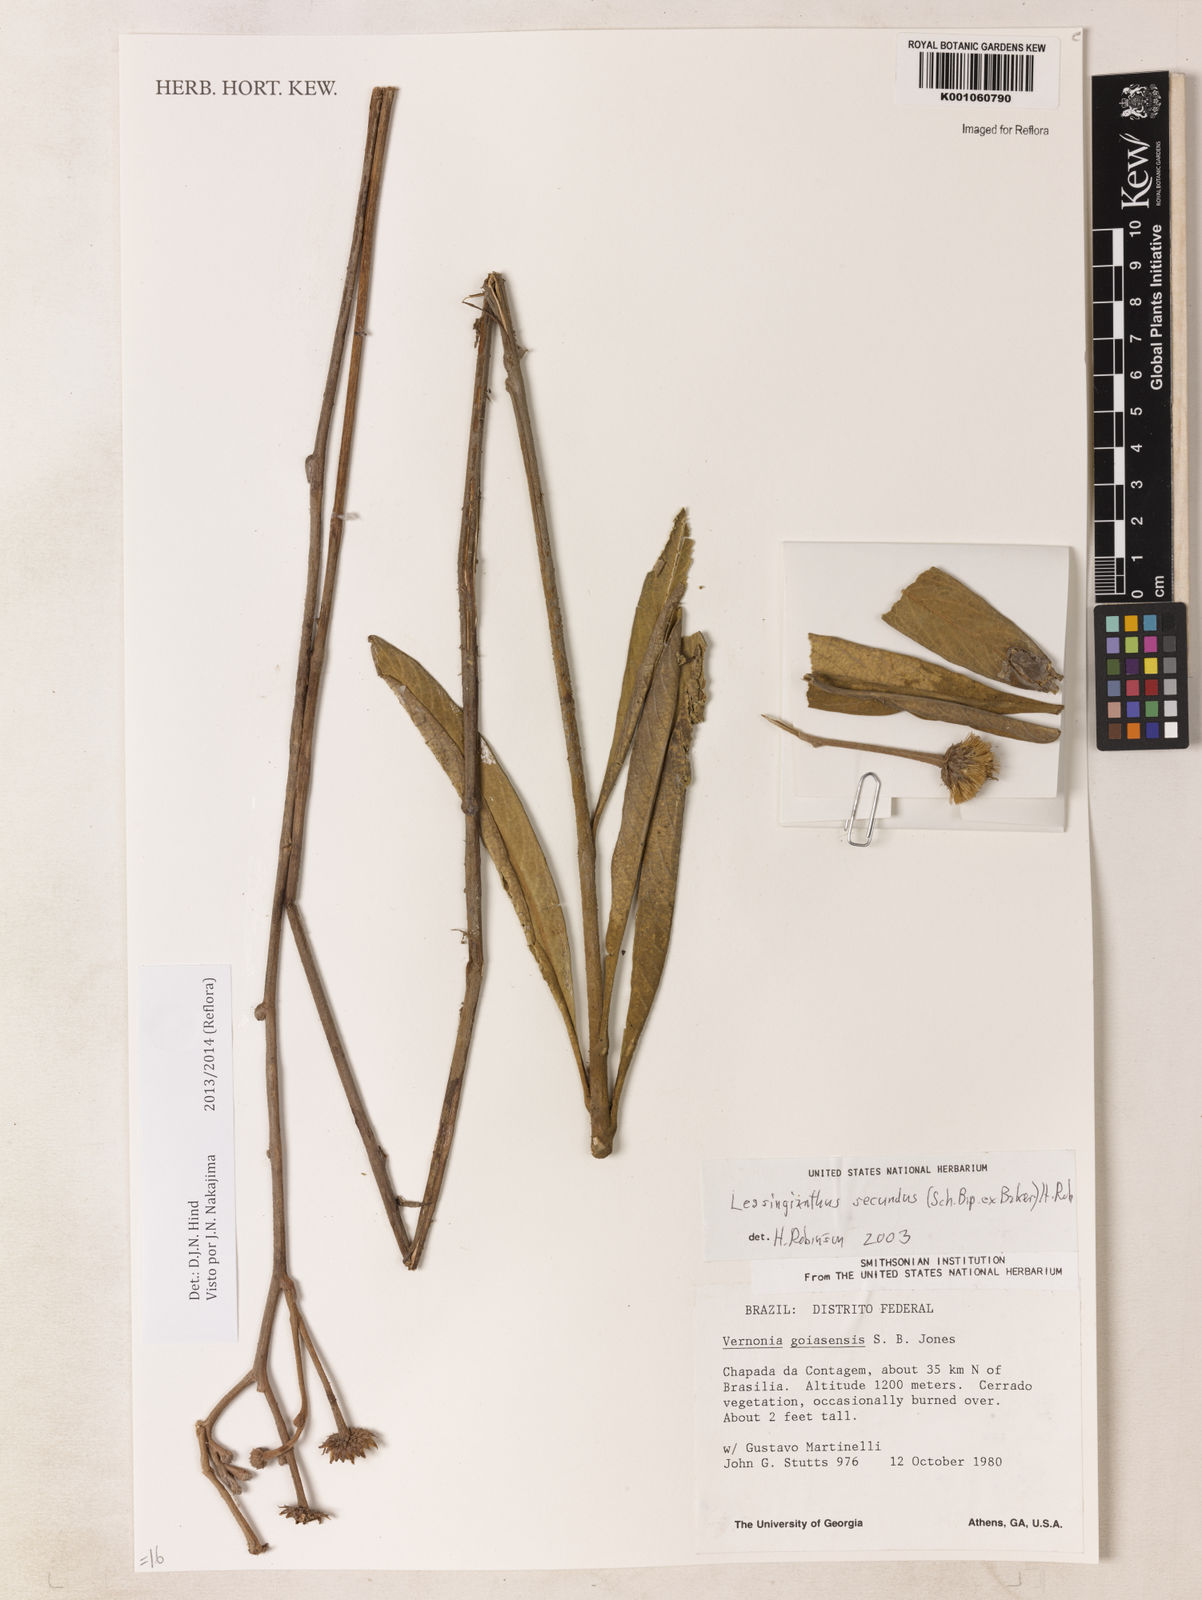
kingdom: Plantae
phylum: Tracheophyta
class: Magnoliopsida
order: Asterales
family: Asteraceae
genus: Lessingianthus
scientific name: Lessingianthus secundus
